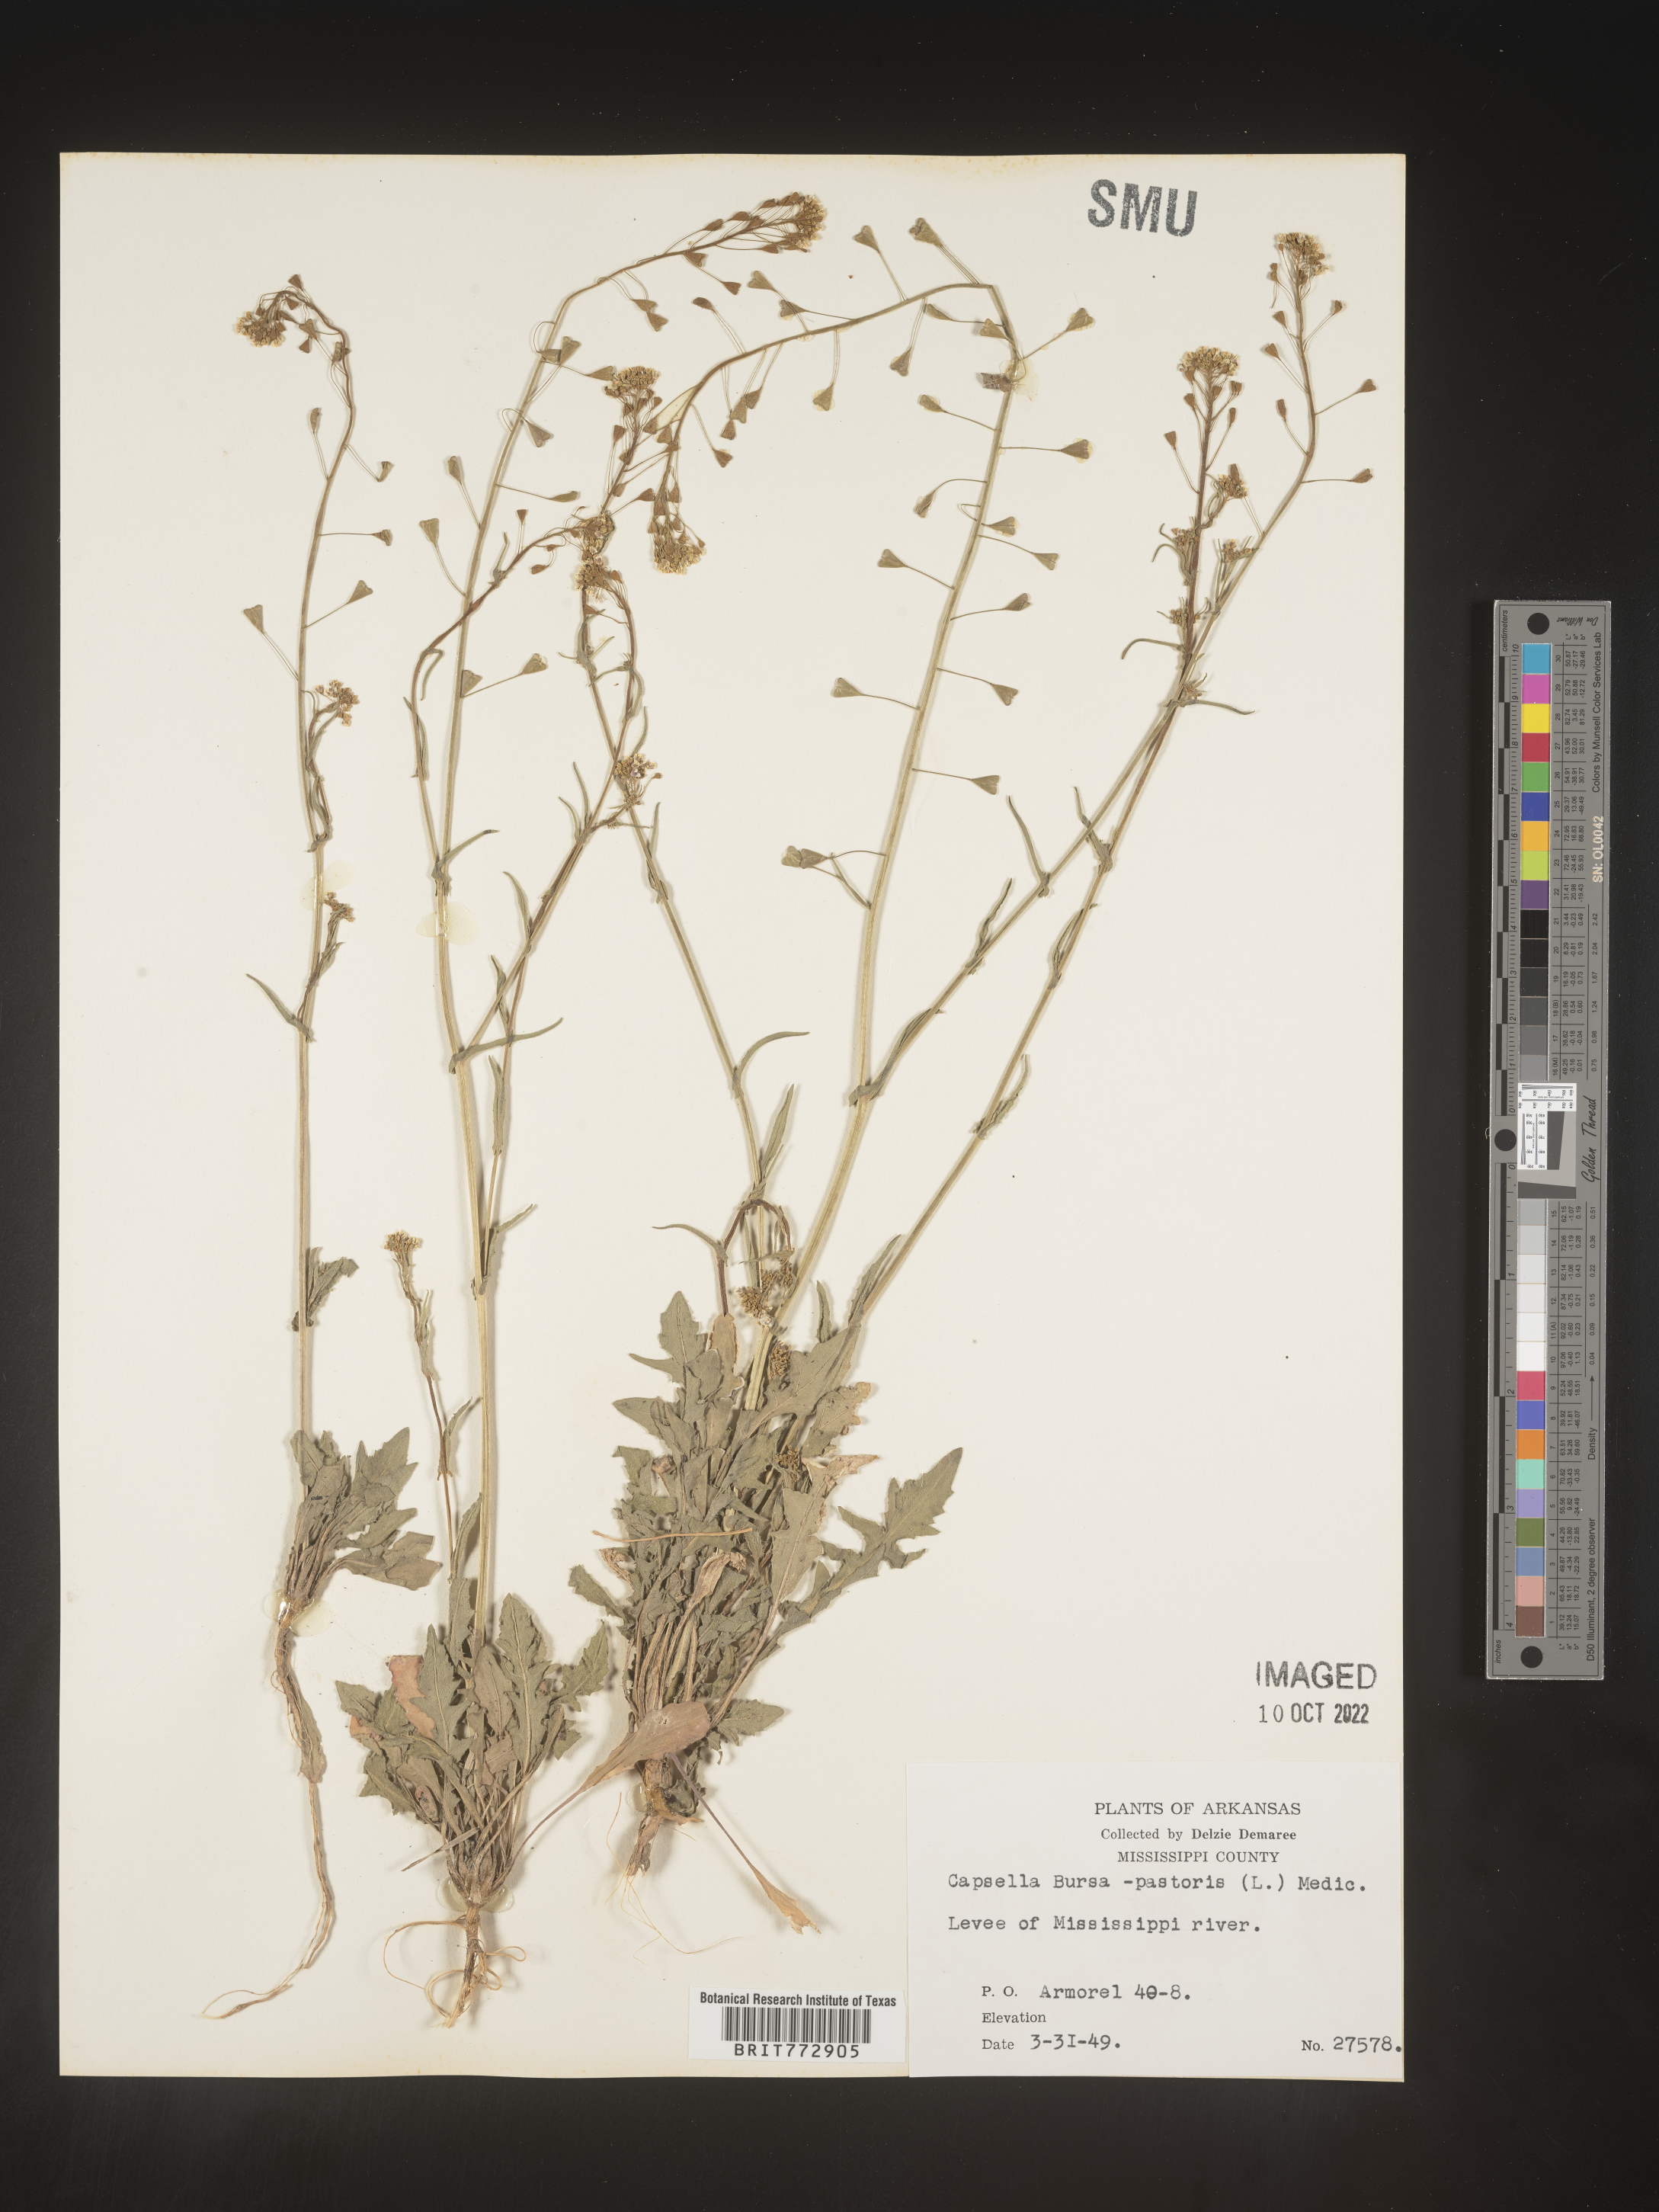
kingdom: Plantae
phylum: Tracheophyta
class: Magnoliopsida
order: Brassicales
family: Brassicaceae
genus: Capsella
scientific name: Capsella bursa-pastoris
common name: Shepherd's purse
